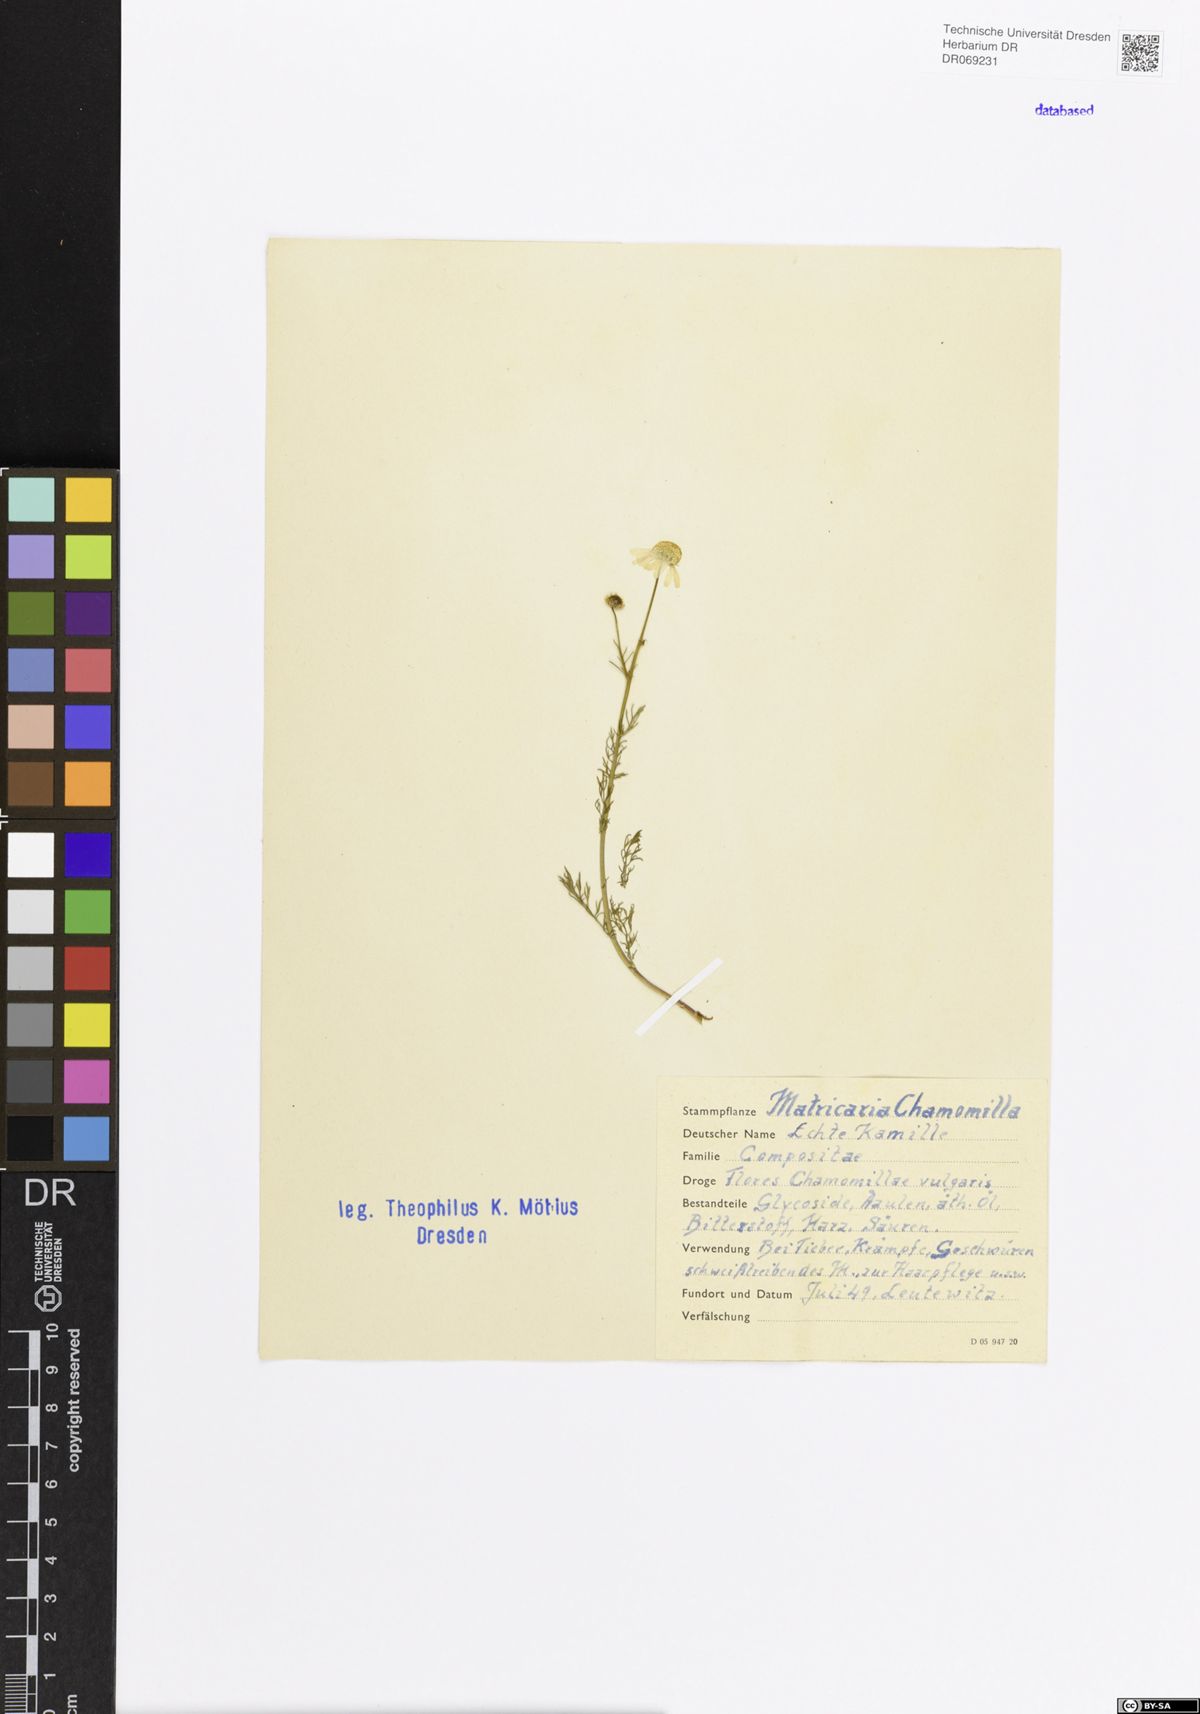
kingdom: Plantae
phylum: Tracheophyta
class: Magnoliopsida
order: Asterales
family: Asteraceae
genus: Matricaria
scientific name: Matricaria chamomilla
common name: Scented mayweed
